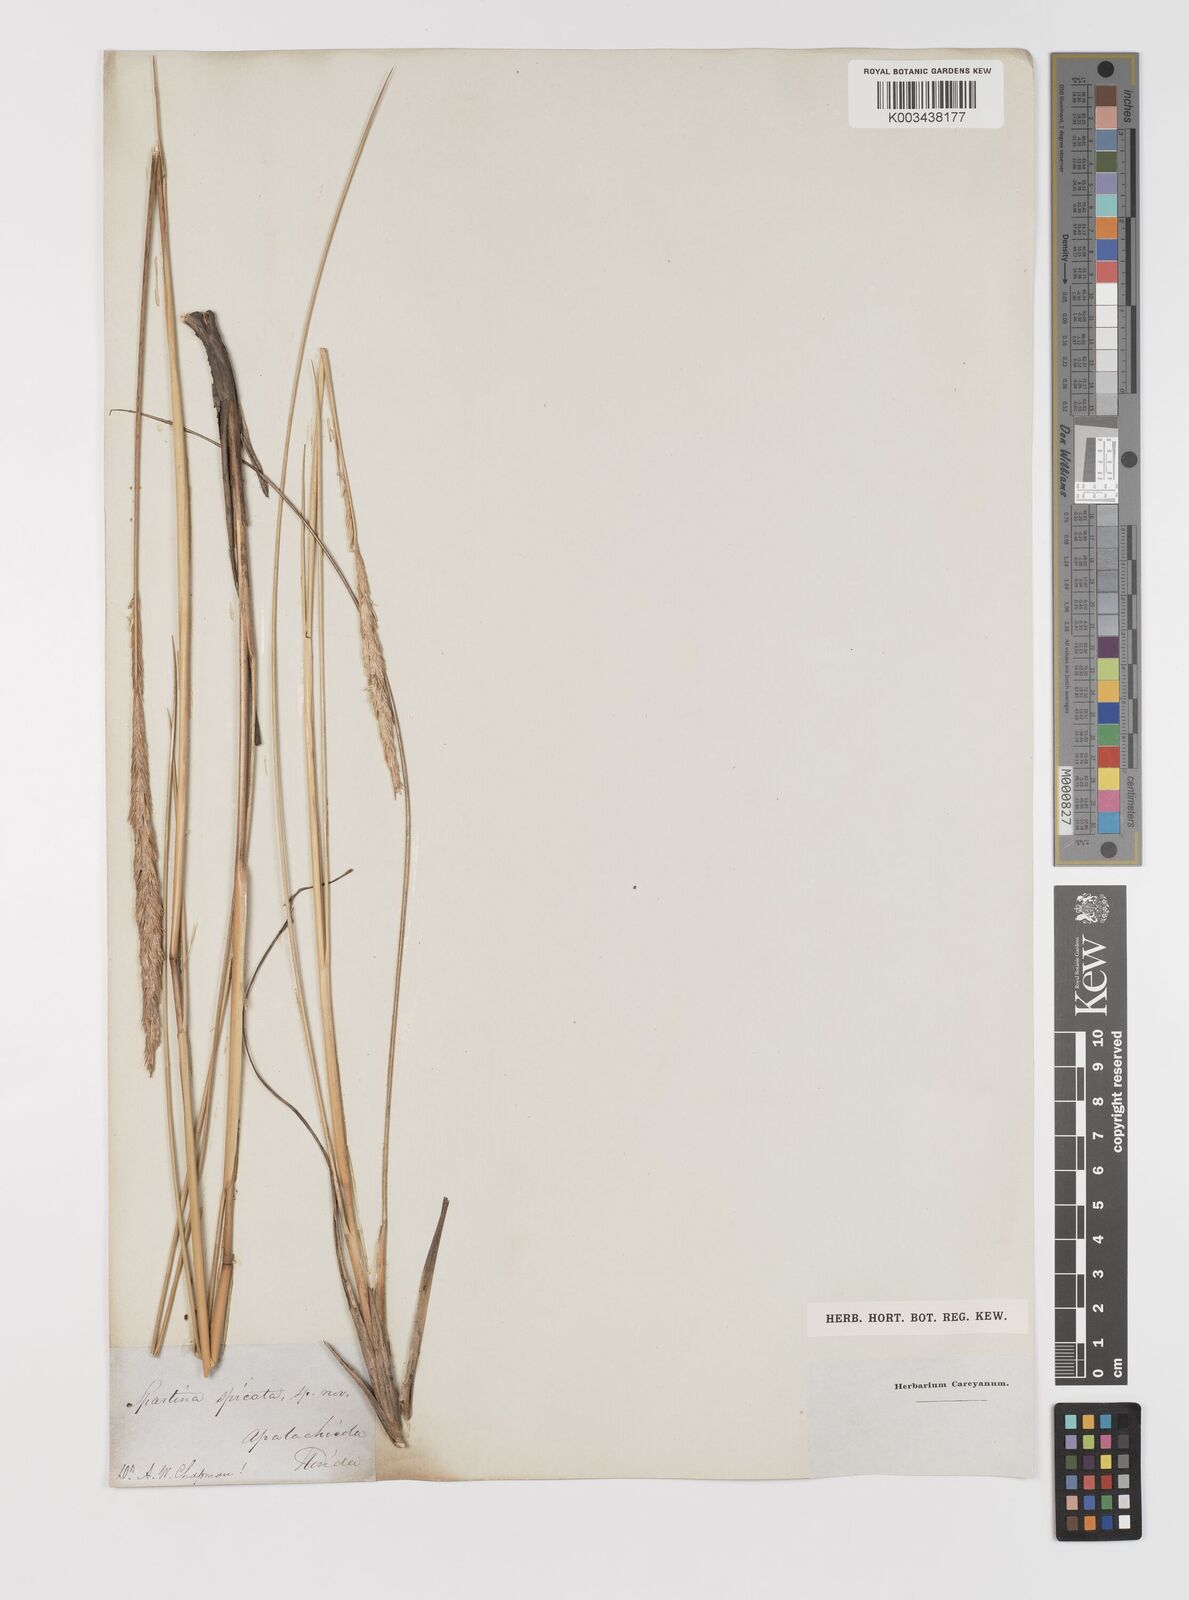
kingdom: Animalia
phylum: Mollusca
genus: Spartina
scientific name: Spartina
